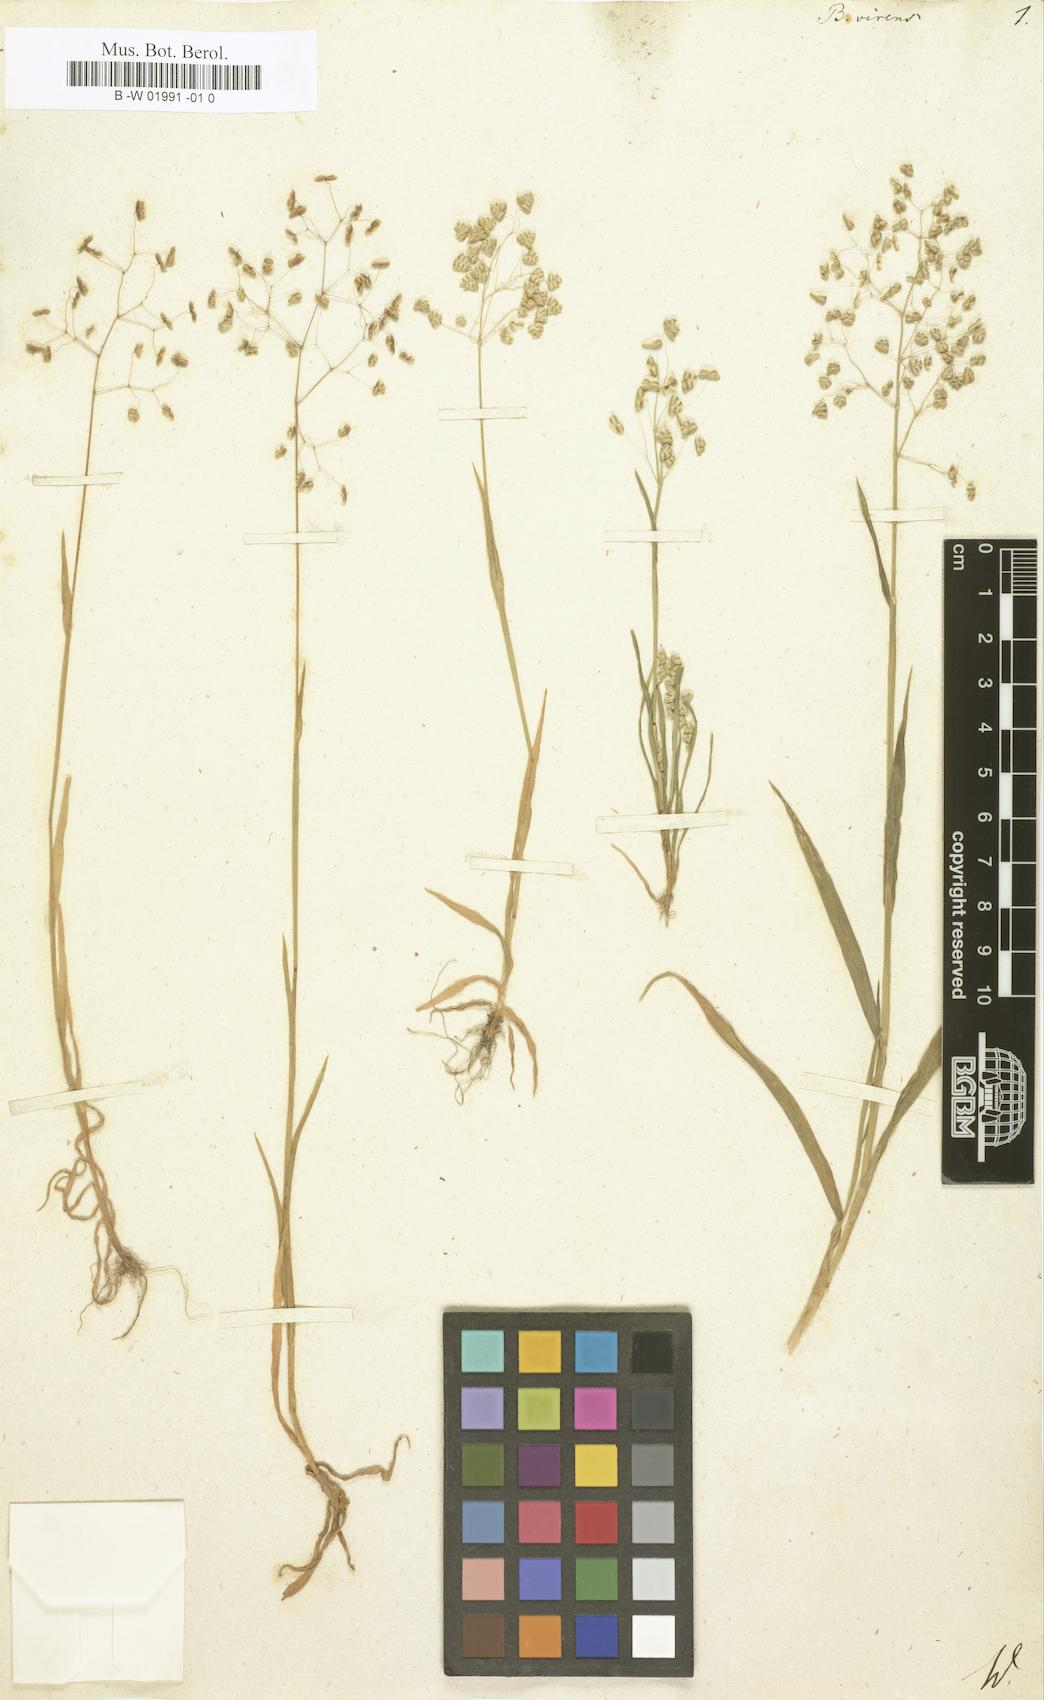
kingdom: Plantae
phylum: Tracheophyta
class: Liliopsida
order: Poales
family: Poaceae
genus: Briza
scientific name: Briza minor
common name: Lesser quaking-grass
